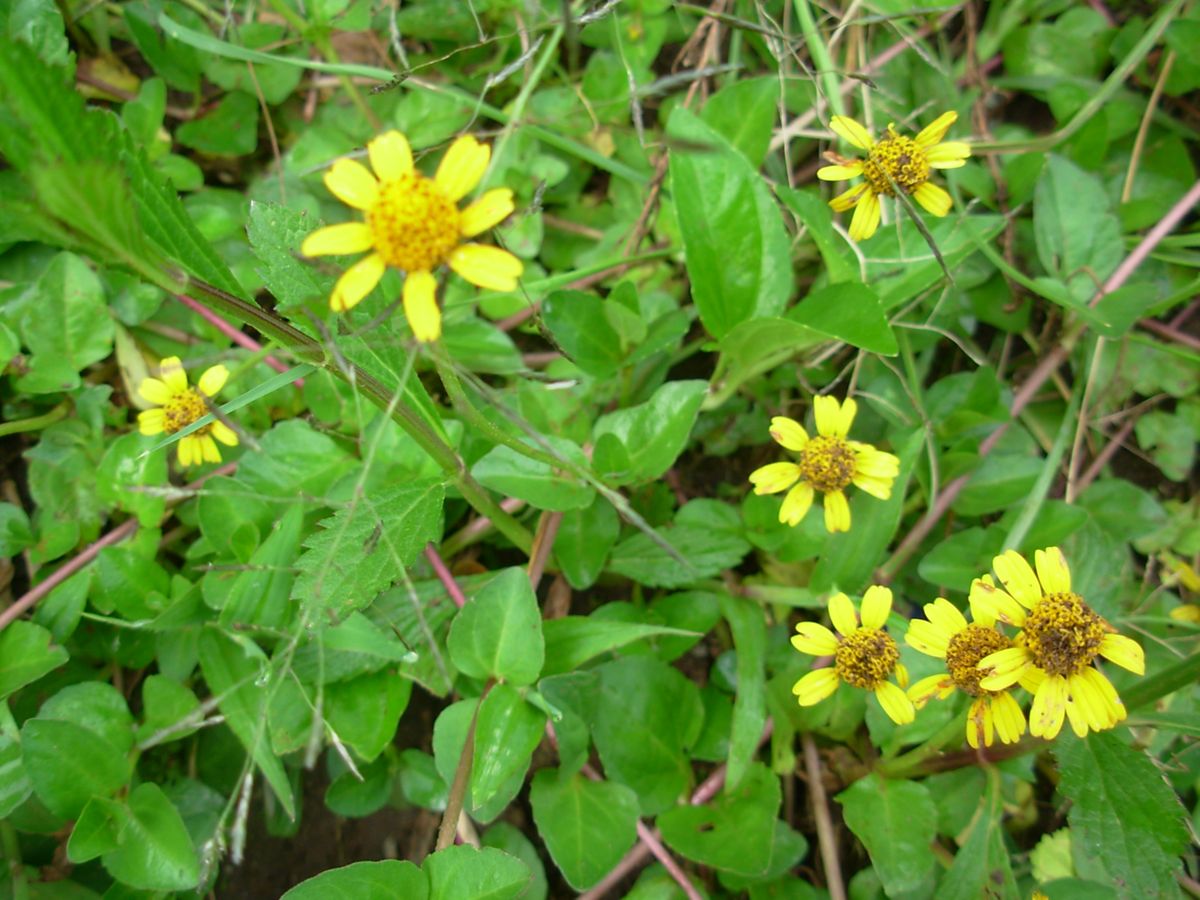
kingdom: Plantae
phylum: Tracheophyta
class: Magnoliopsida
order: Asterales
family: Asteraceae
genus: Heliopsis
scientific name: Heliopsis buphthalmoides
